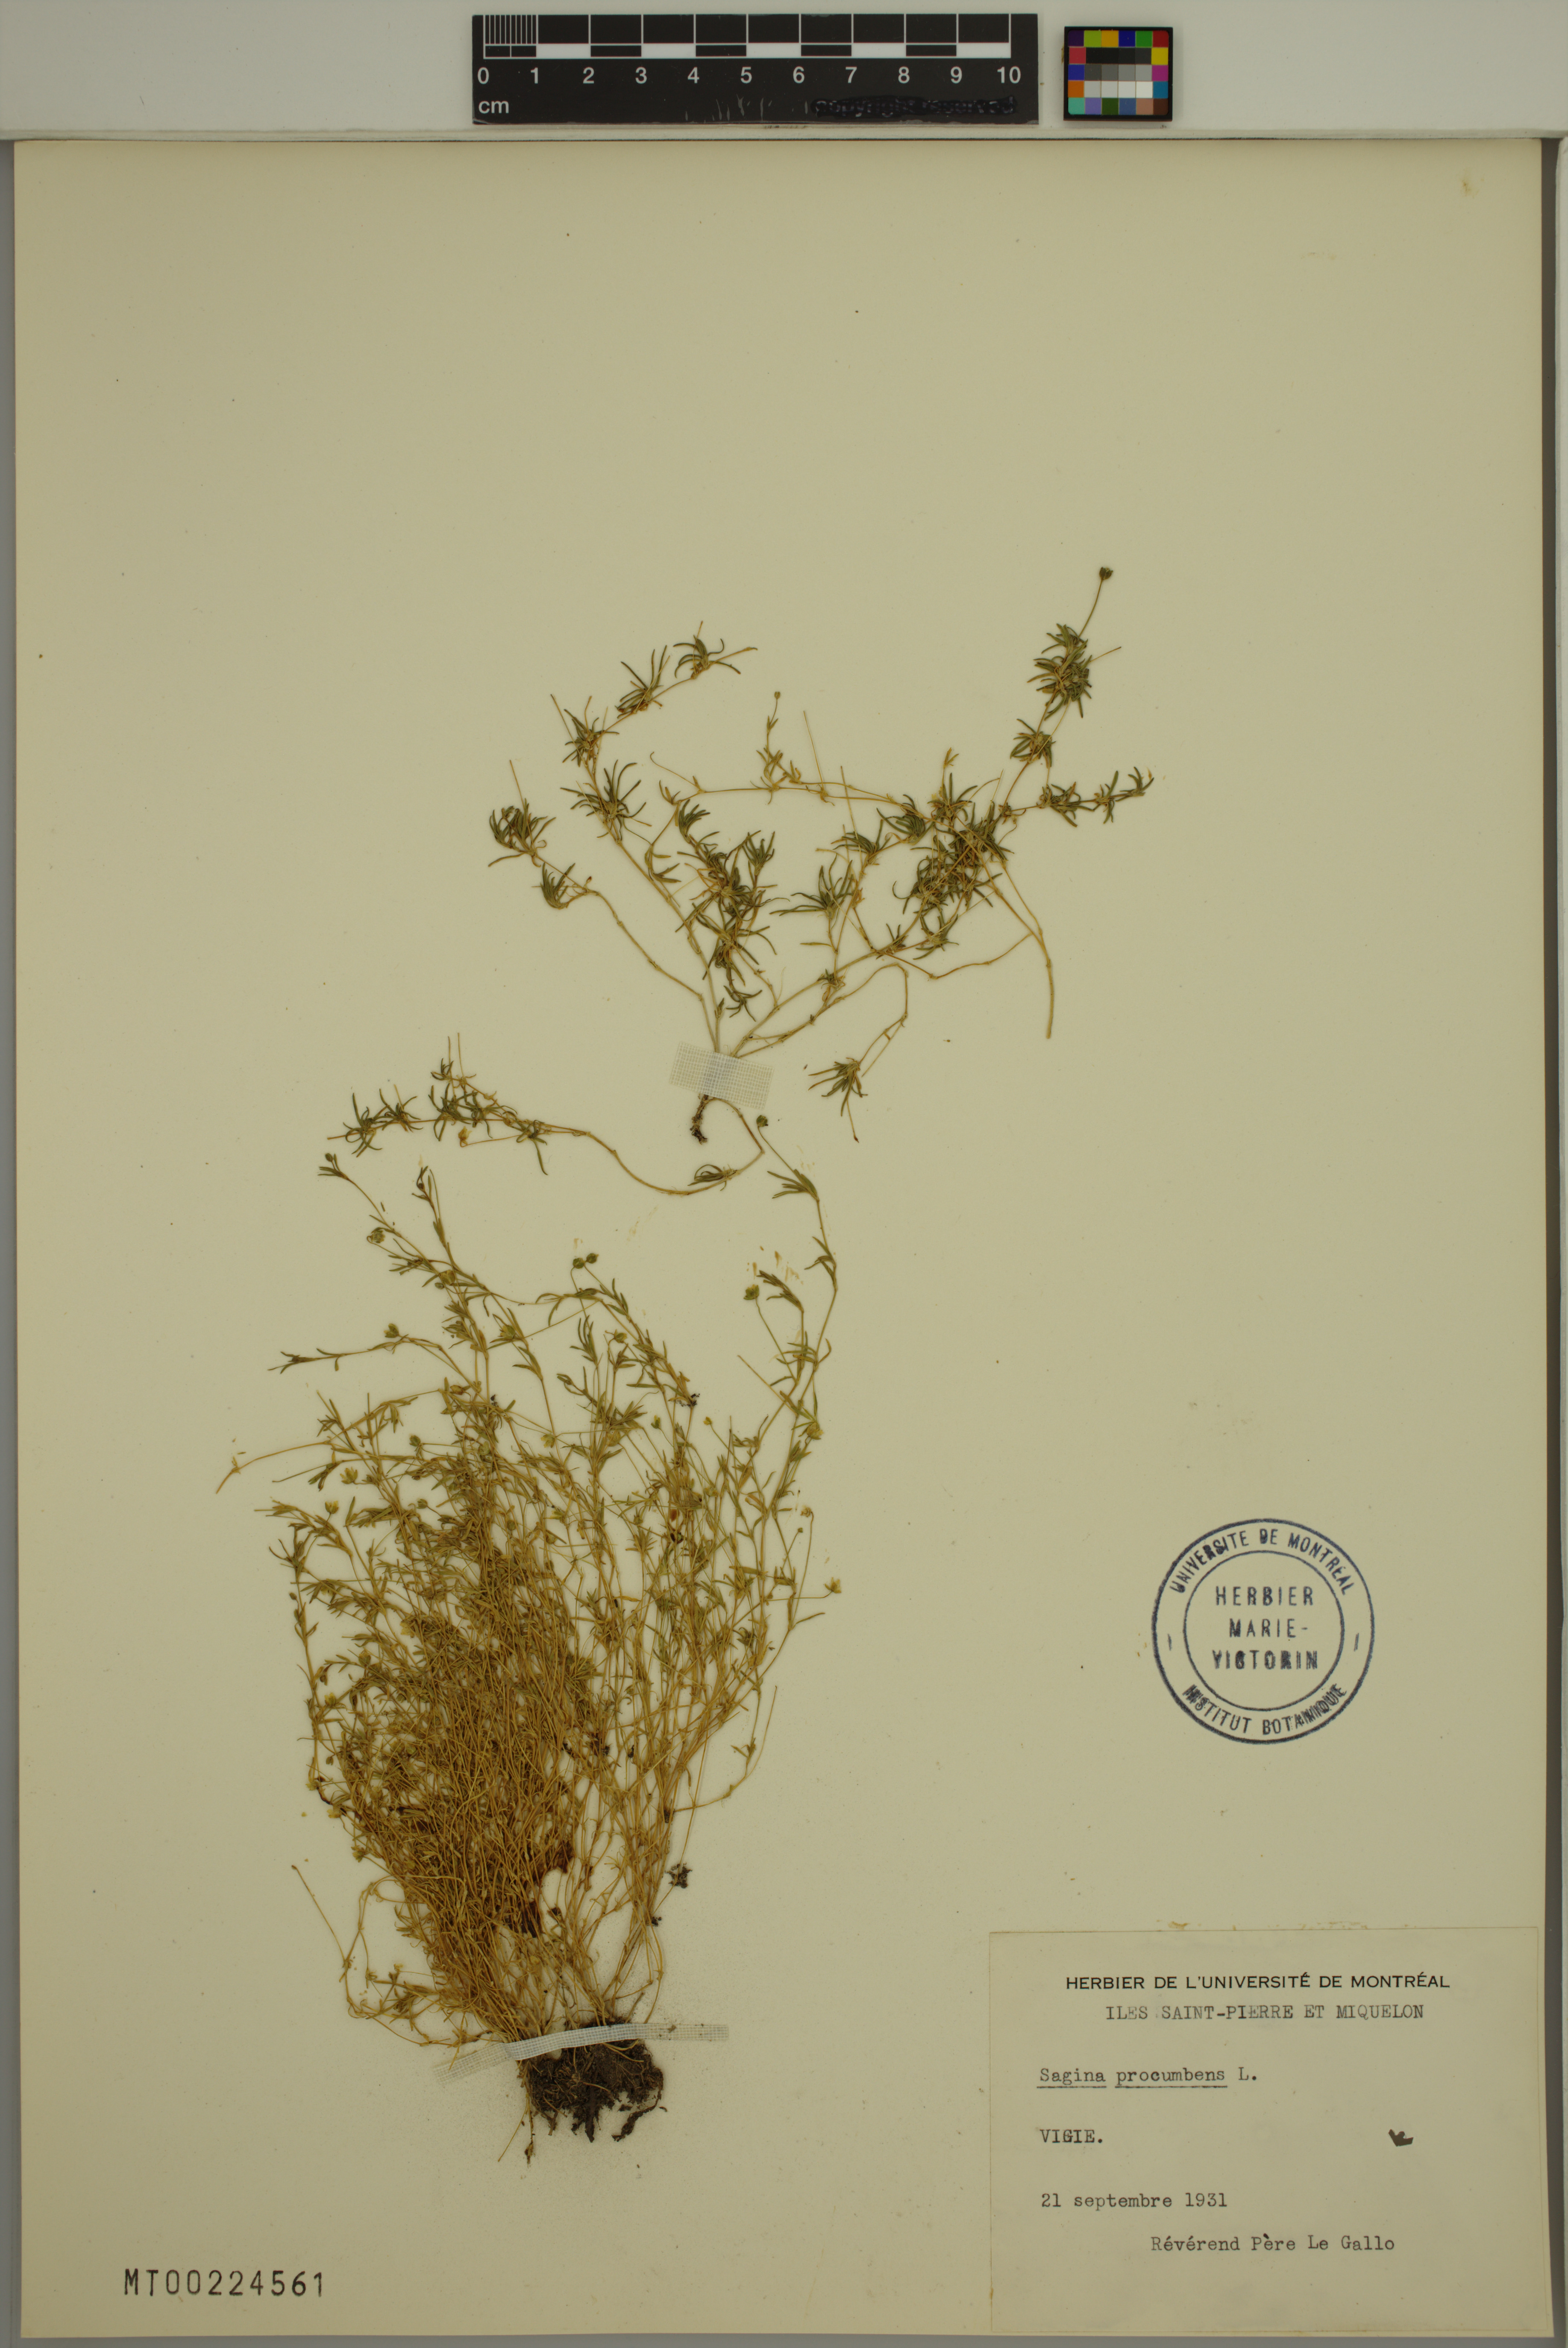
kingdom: Plantae
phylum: Tracheophyta
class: Magnoliopsida
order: Caryophyllales
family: Caryophyllaceae
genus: Sagina
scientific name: Sagina procumbens
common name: Procumbent pearlwort
